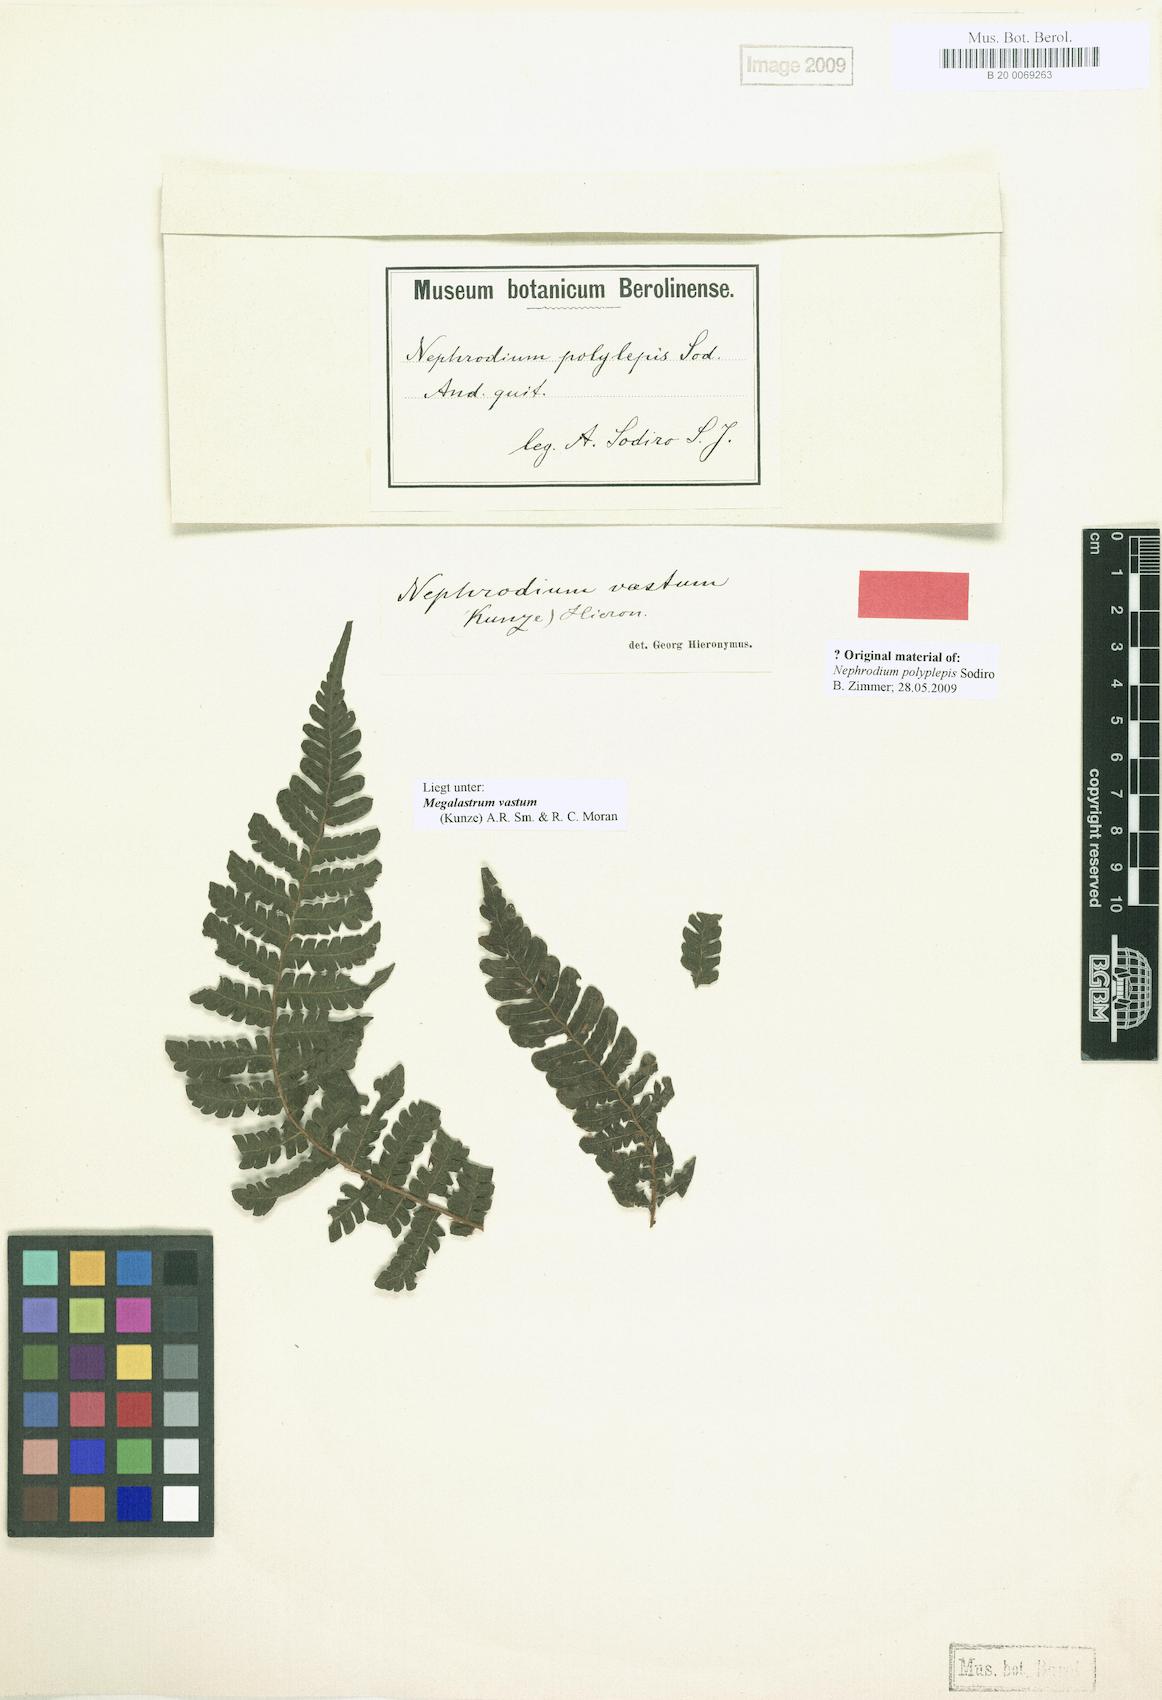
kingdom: Plantae
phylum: Tracheophyta
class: Polypodiopsida
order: Polypodiales
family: Dryopteridaceae
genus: Megalastrum
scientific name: Megalastrum vastum
